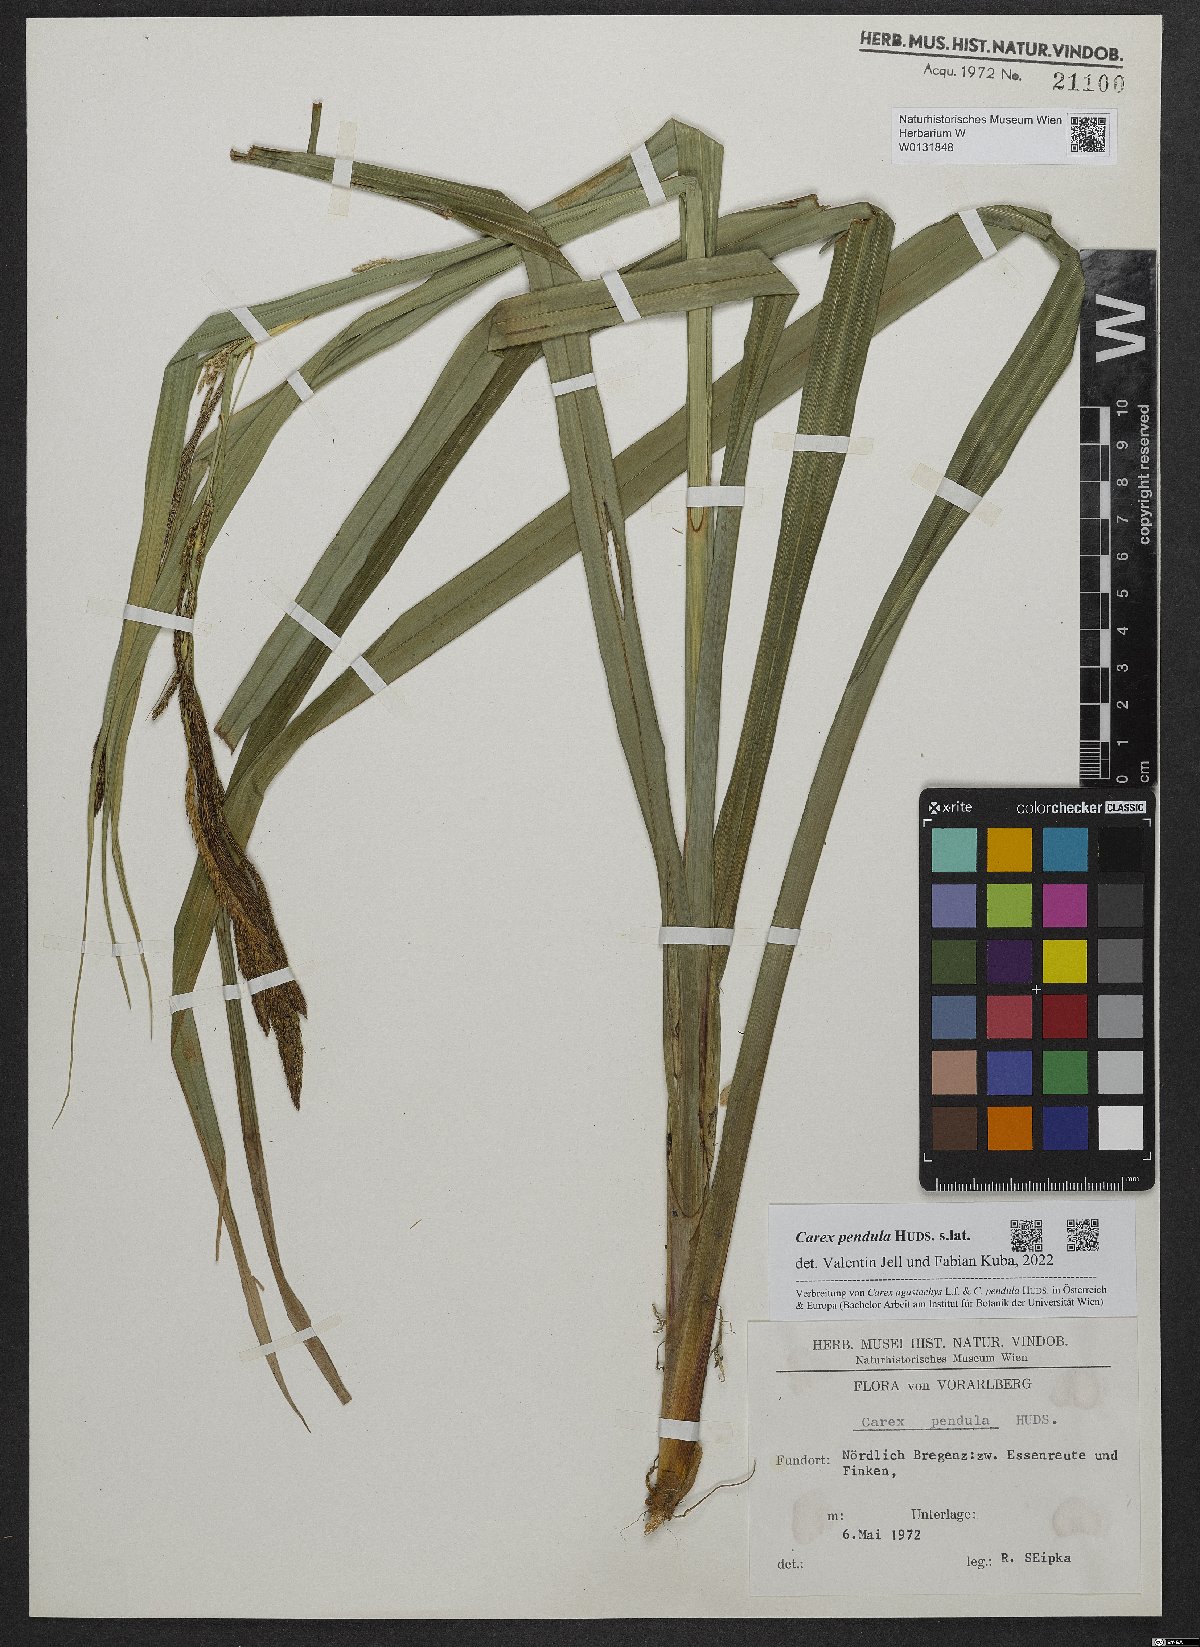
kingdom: Plantae
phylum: Tracheophyta
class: Liliopsida
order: Poales
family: Cyperaceae
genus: Carex
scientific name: Carex pendula
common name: Pendulous sedge
